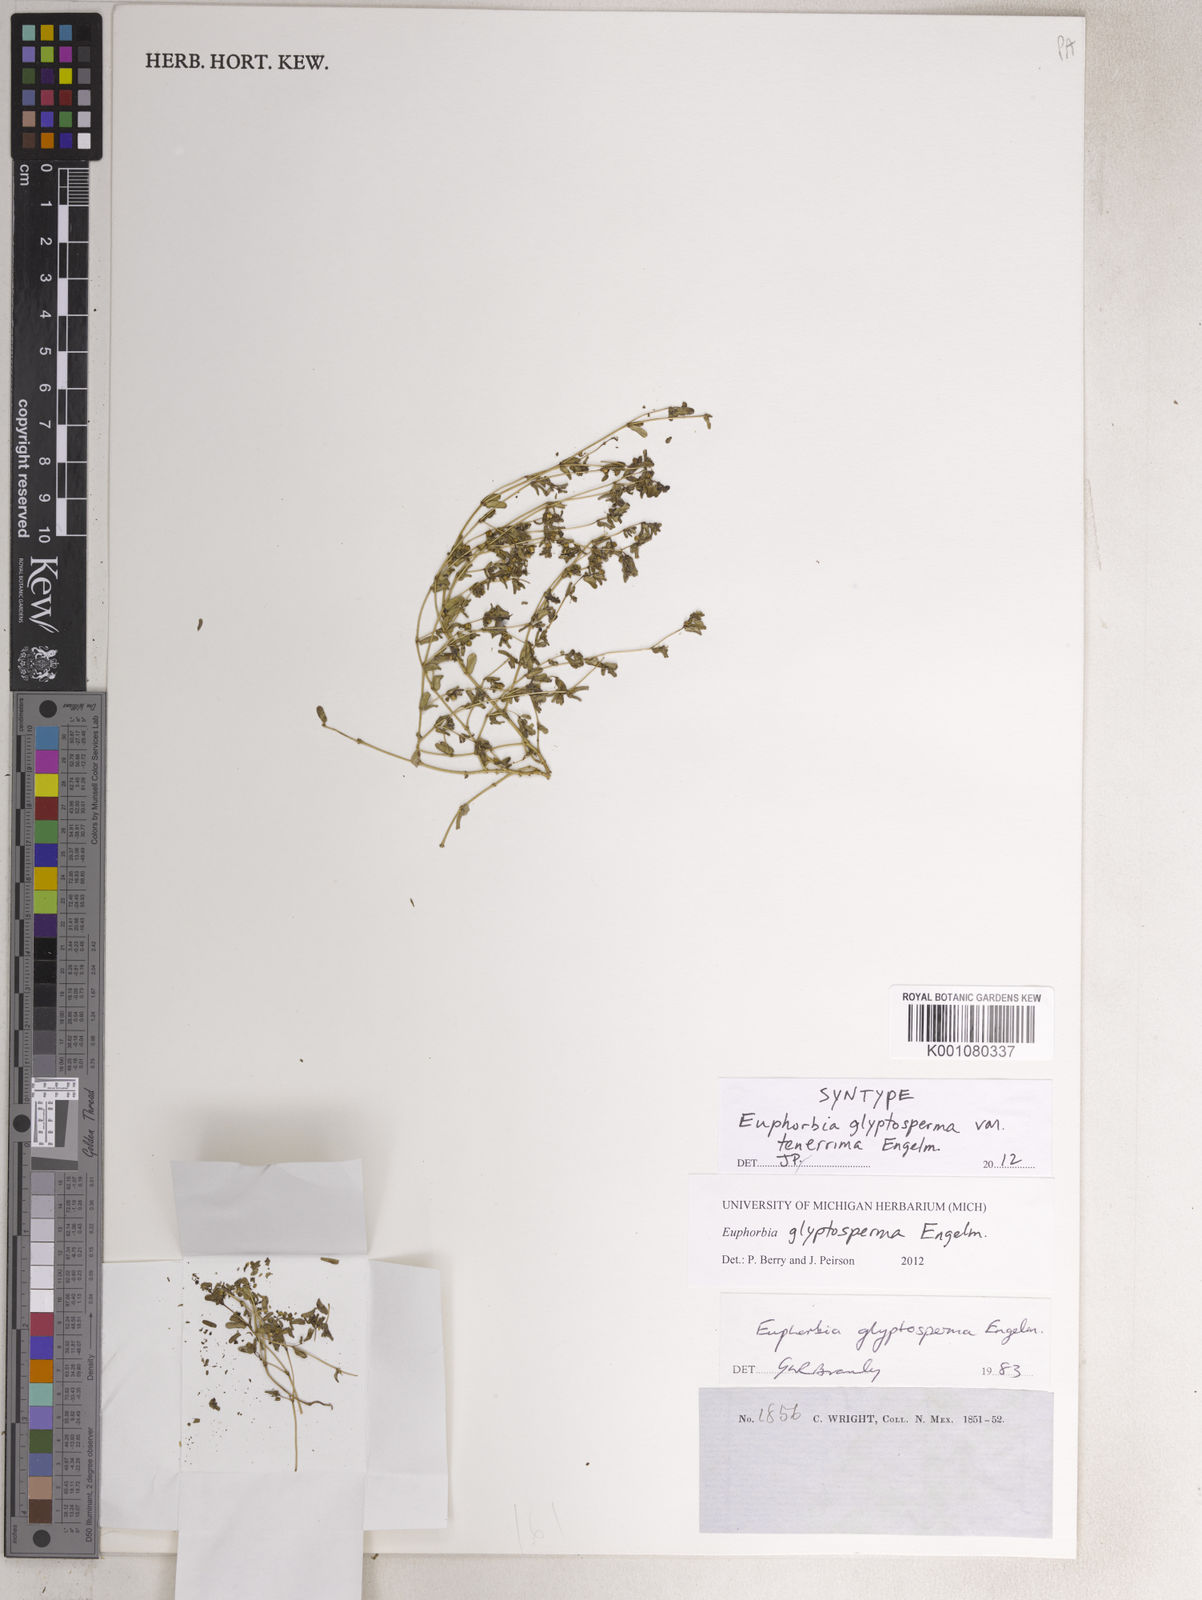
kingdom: Plantae
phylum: Tracheophyta
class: Magnoliopsida
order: Malpighiales
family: Euphorbiaceae
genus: Euphorbia
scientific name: Euphorbia glyptosperma
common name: Corrugate-seeded spurge
